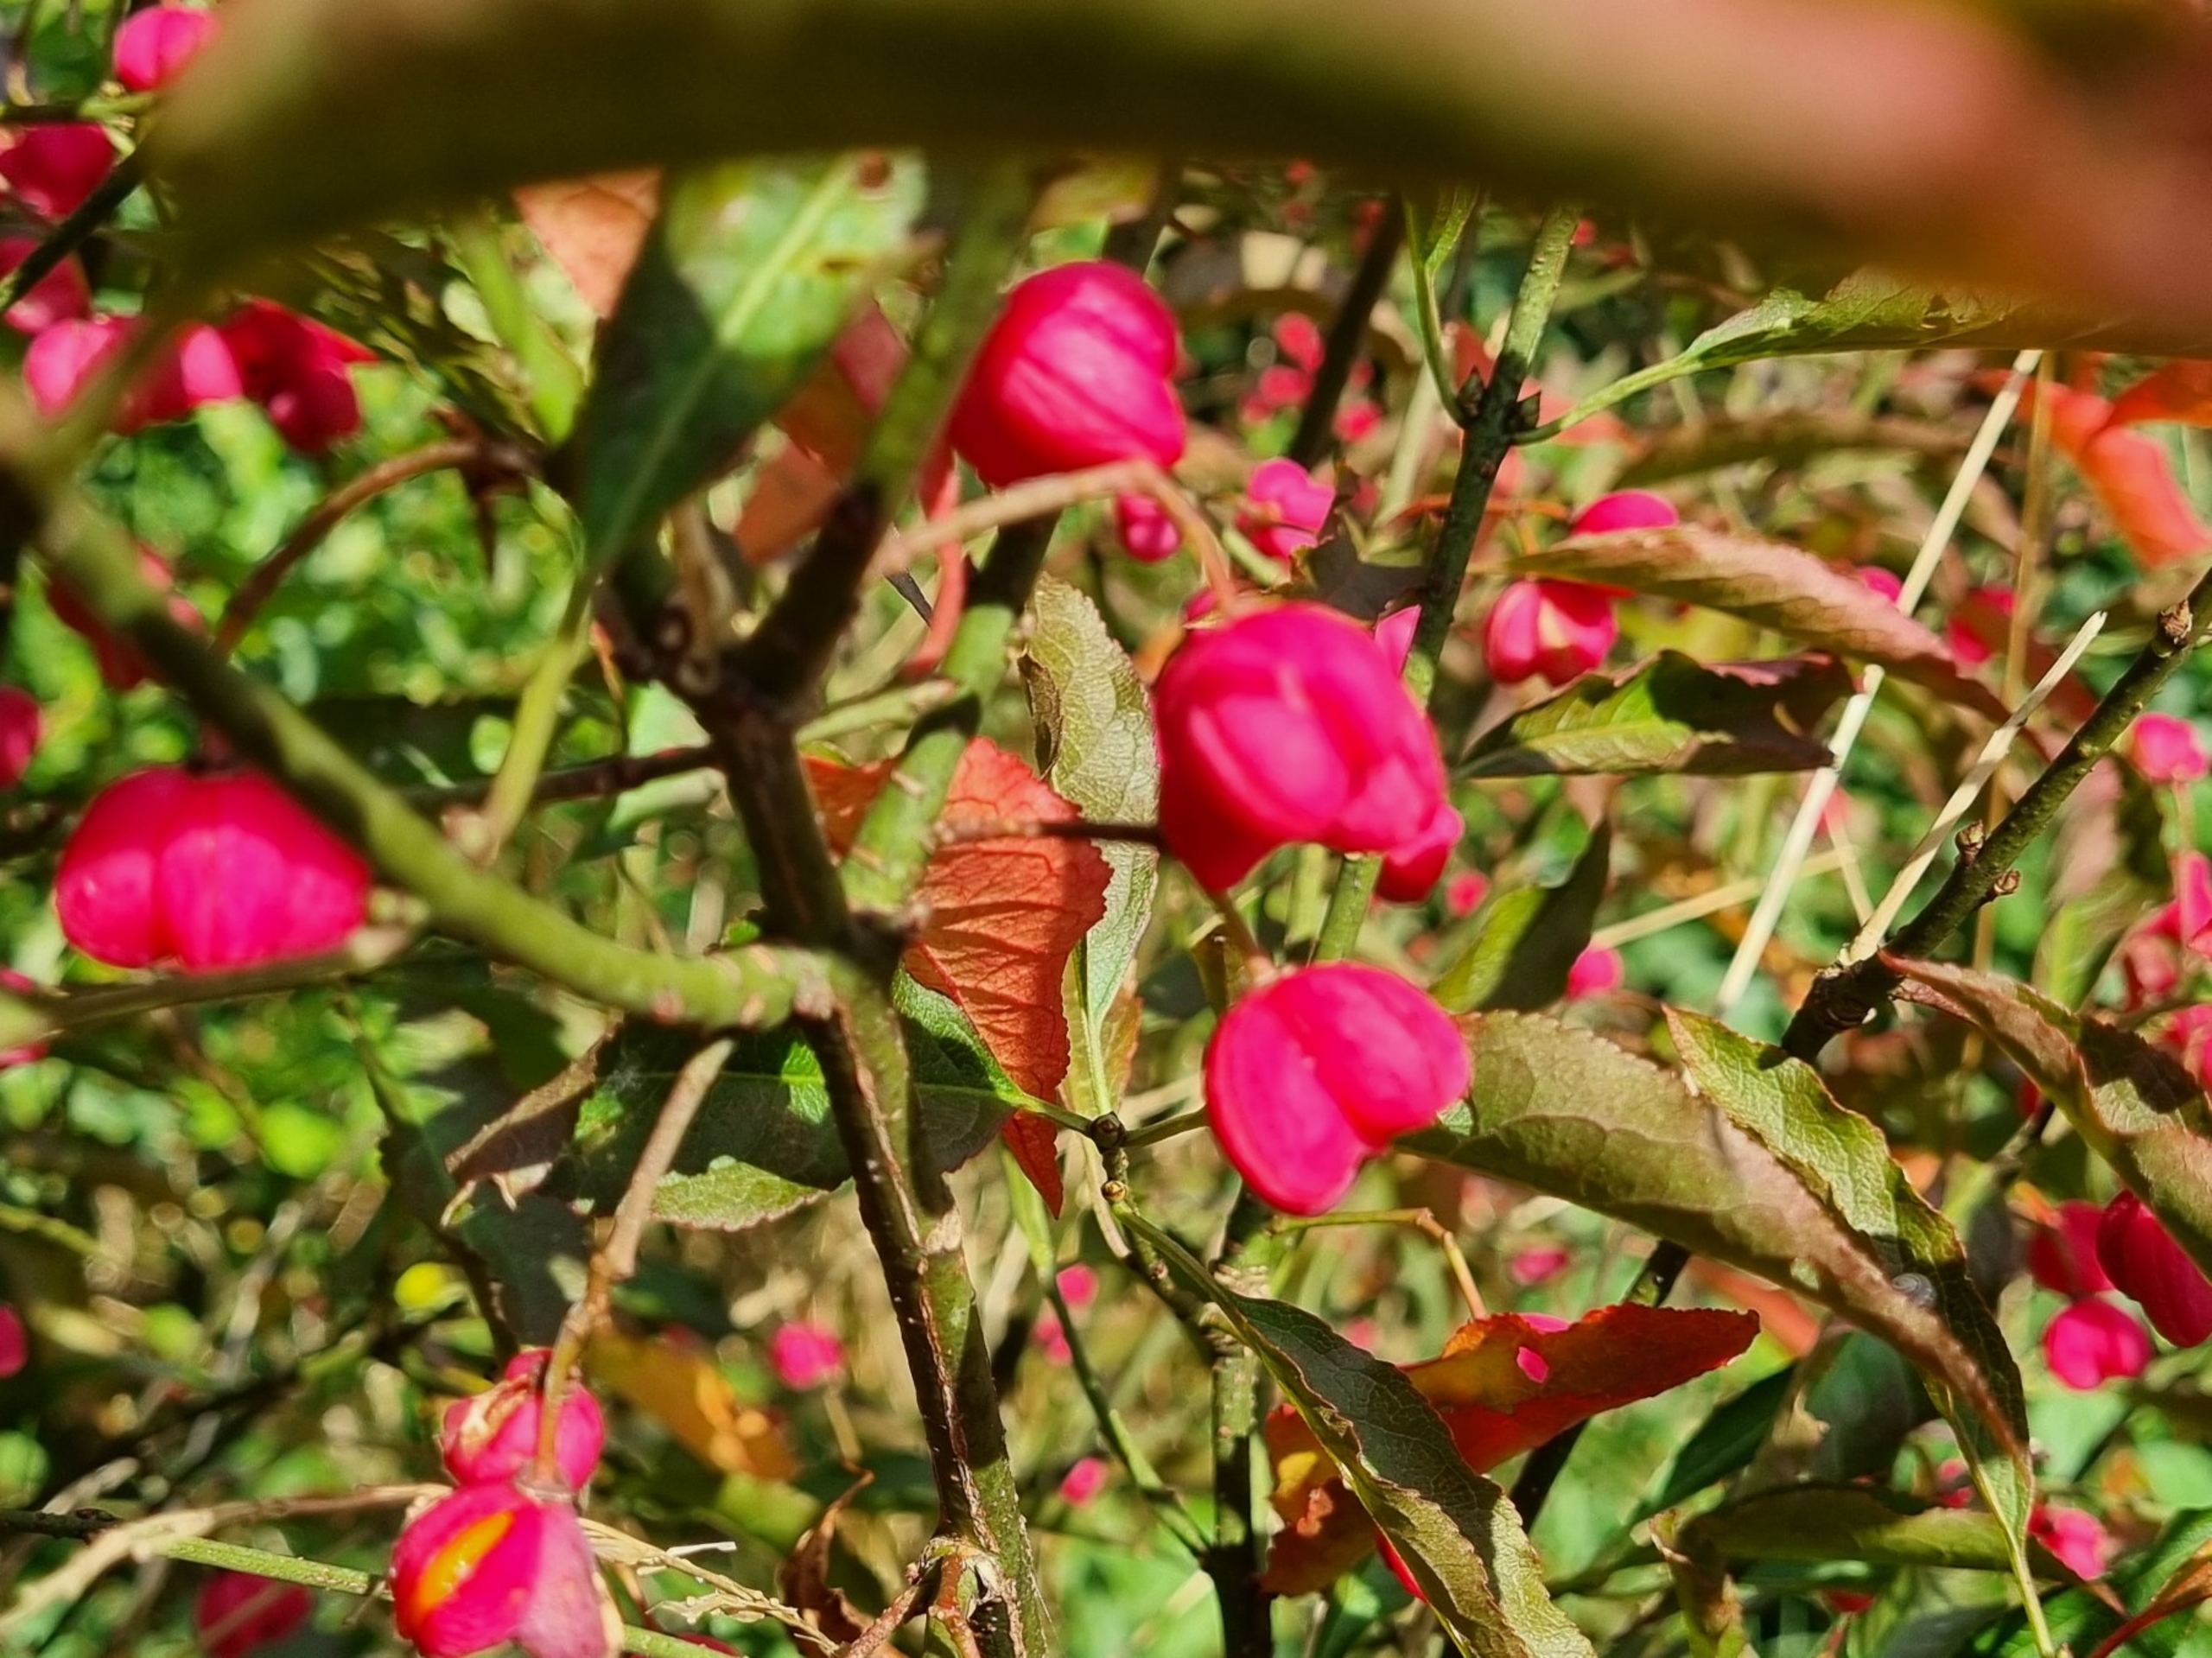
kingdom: Plantae
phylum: Tracheophyta
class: Magnoliopsida
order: Celastrales
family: Celastraceae
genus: Euonymus
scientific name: Euonymus europaeus
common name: Benved
